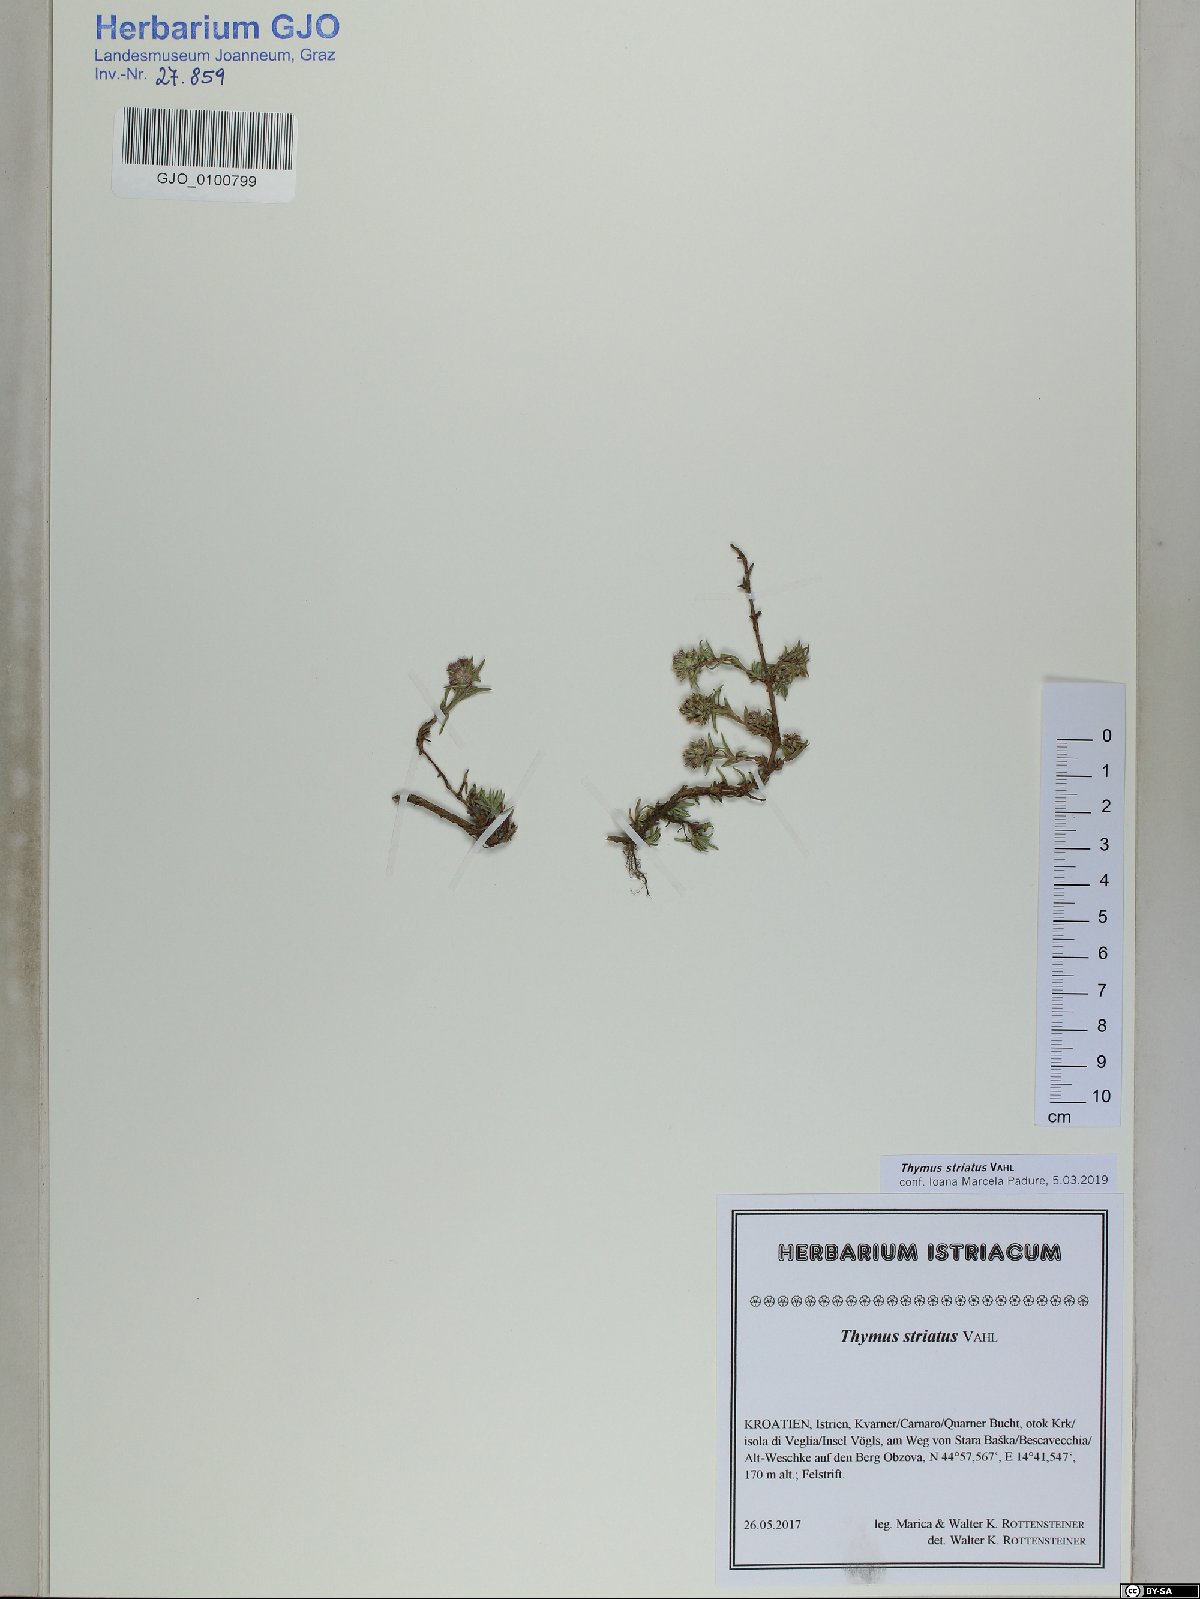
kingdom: Plantae
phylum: Tracheophyta
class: Magnoliopsida
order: Lamiales
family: Lamiaceae
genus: Thymus
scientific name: Thymus striatus
